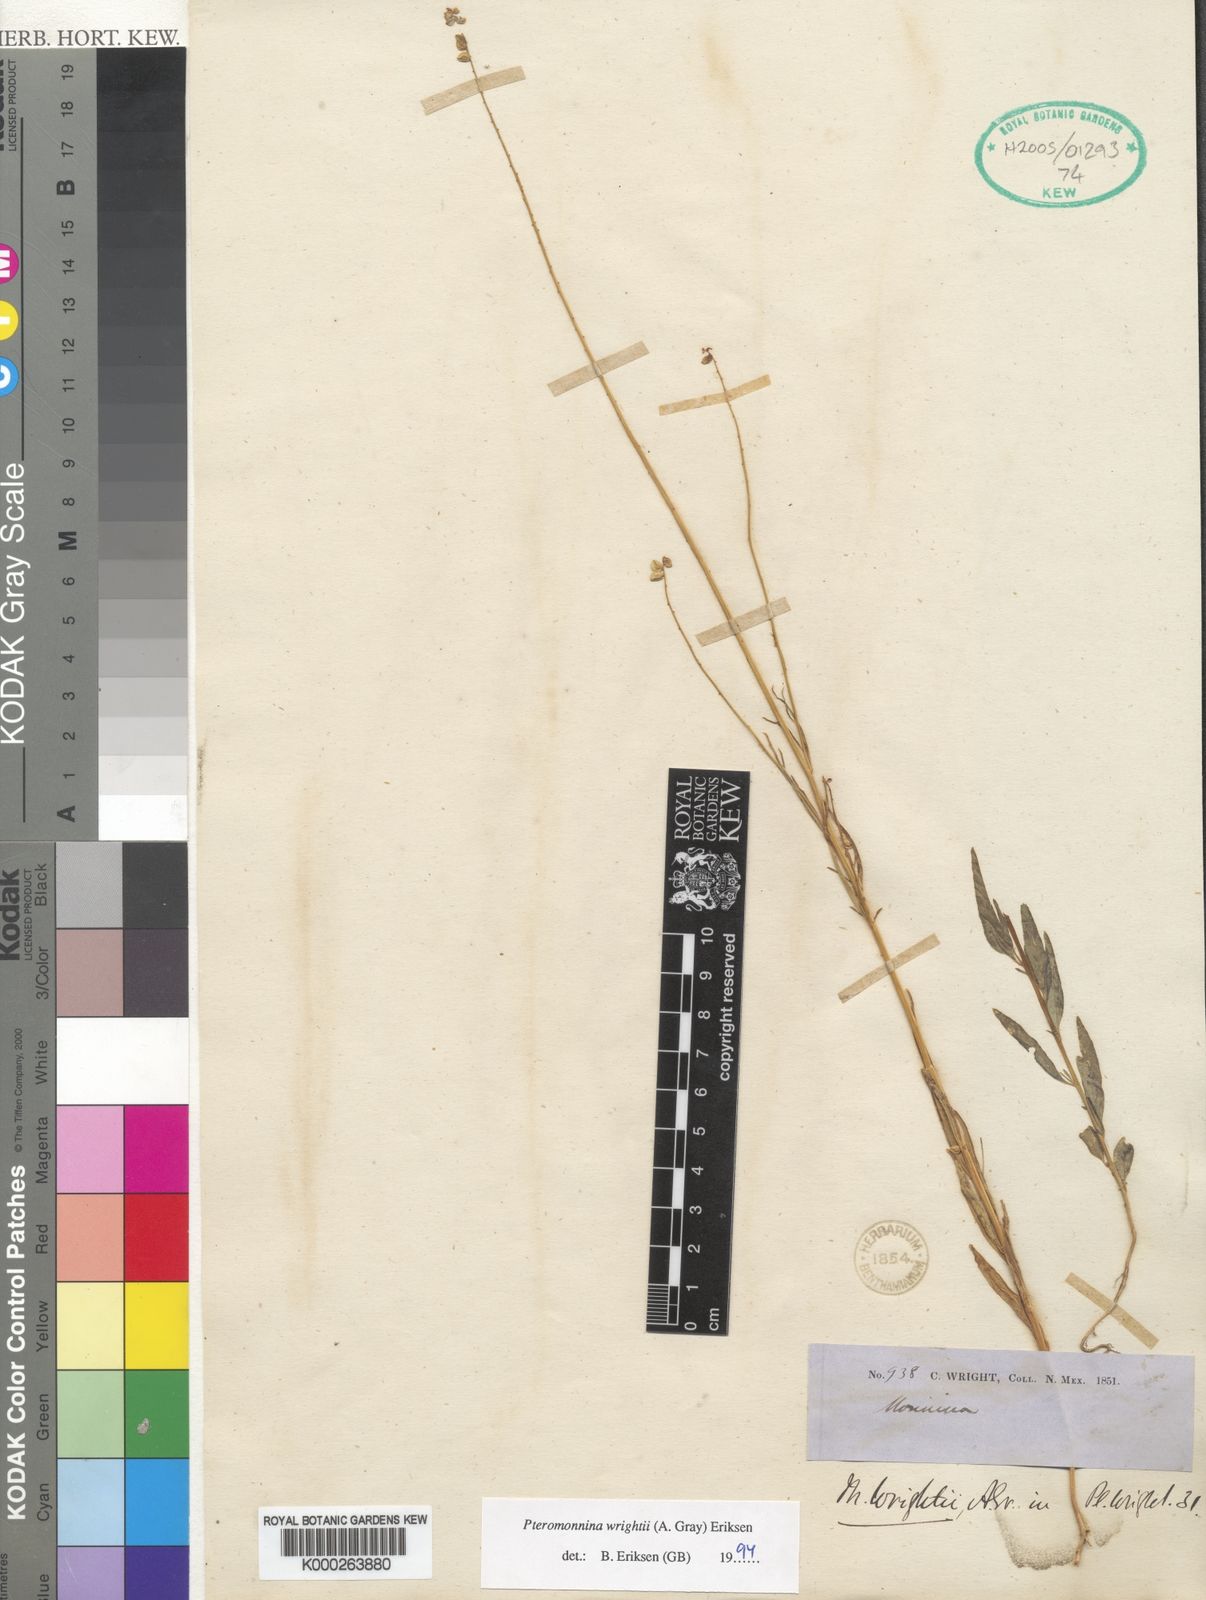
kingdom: Plantae
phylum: Tracheophyta
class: Magnoliopsida
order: Fabales
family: Polygalaceae
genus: Monnina
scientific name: Monnina wrightii
